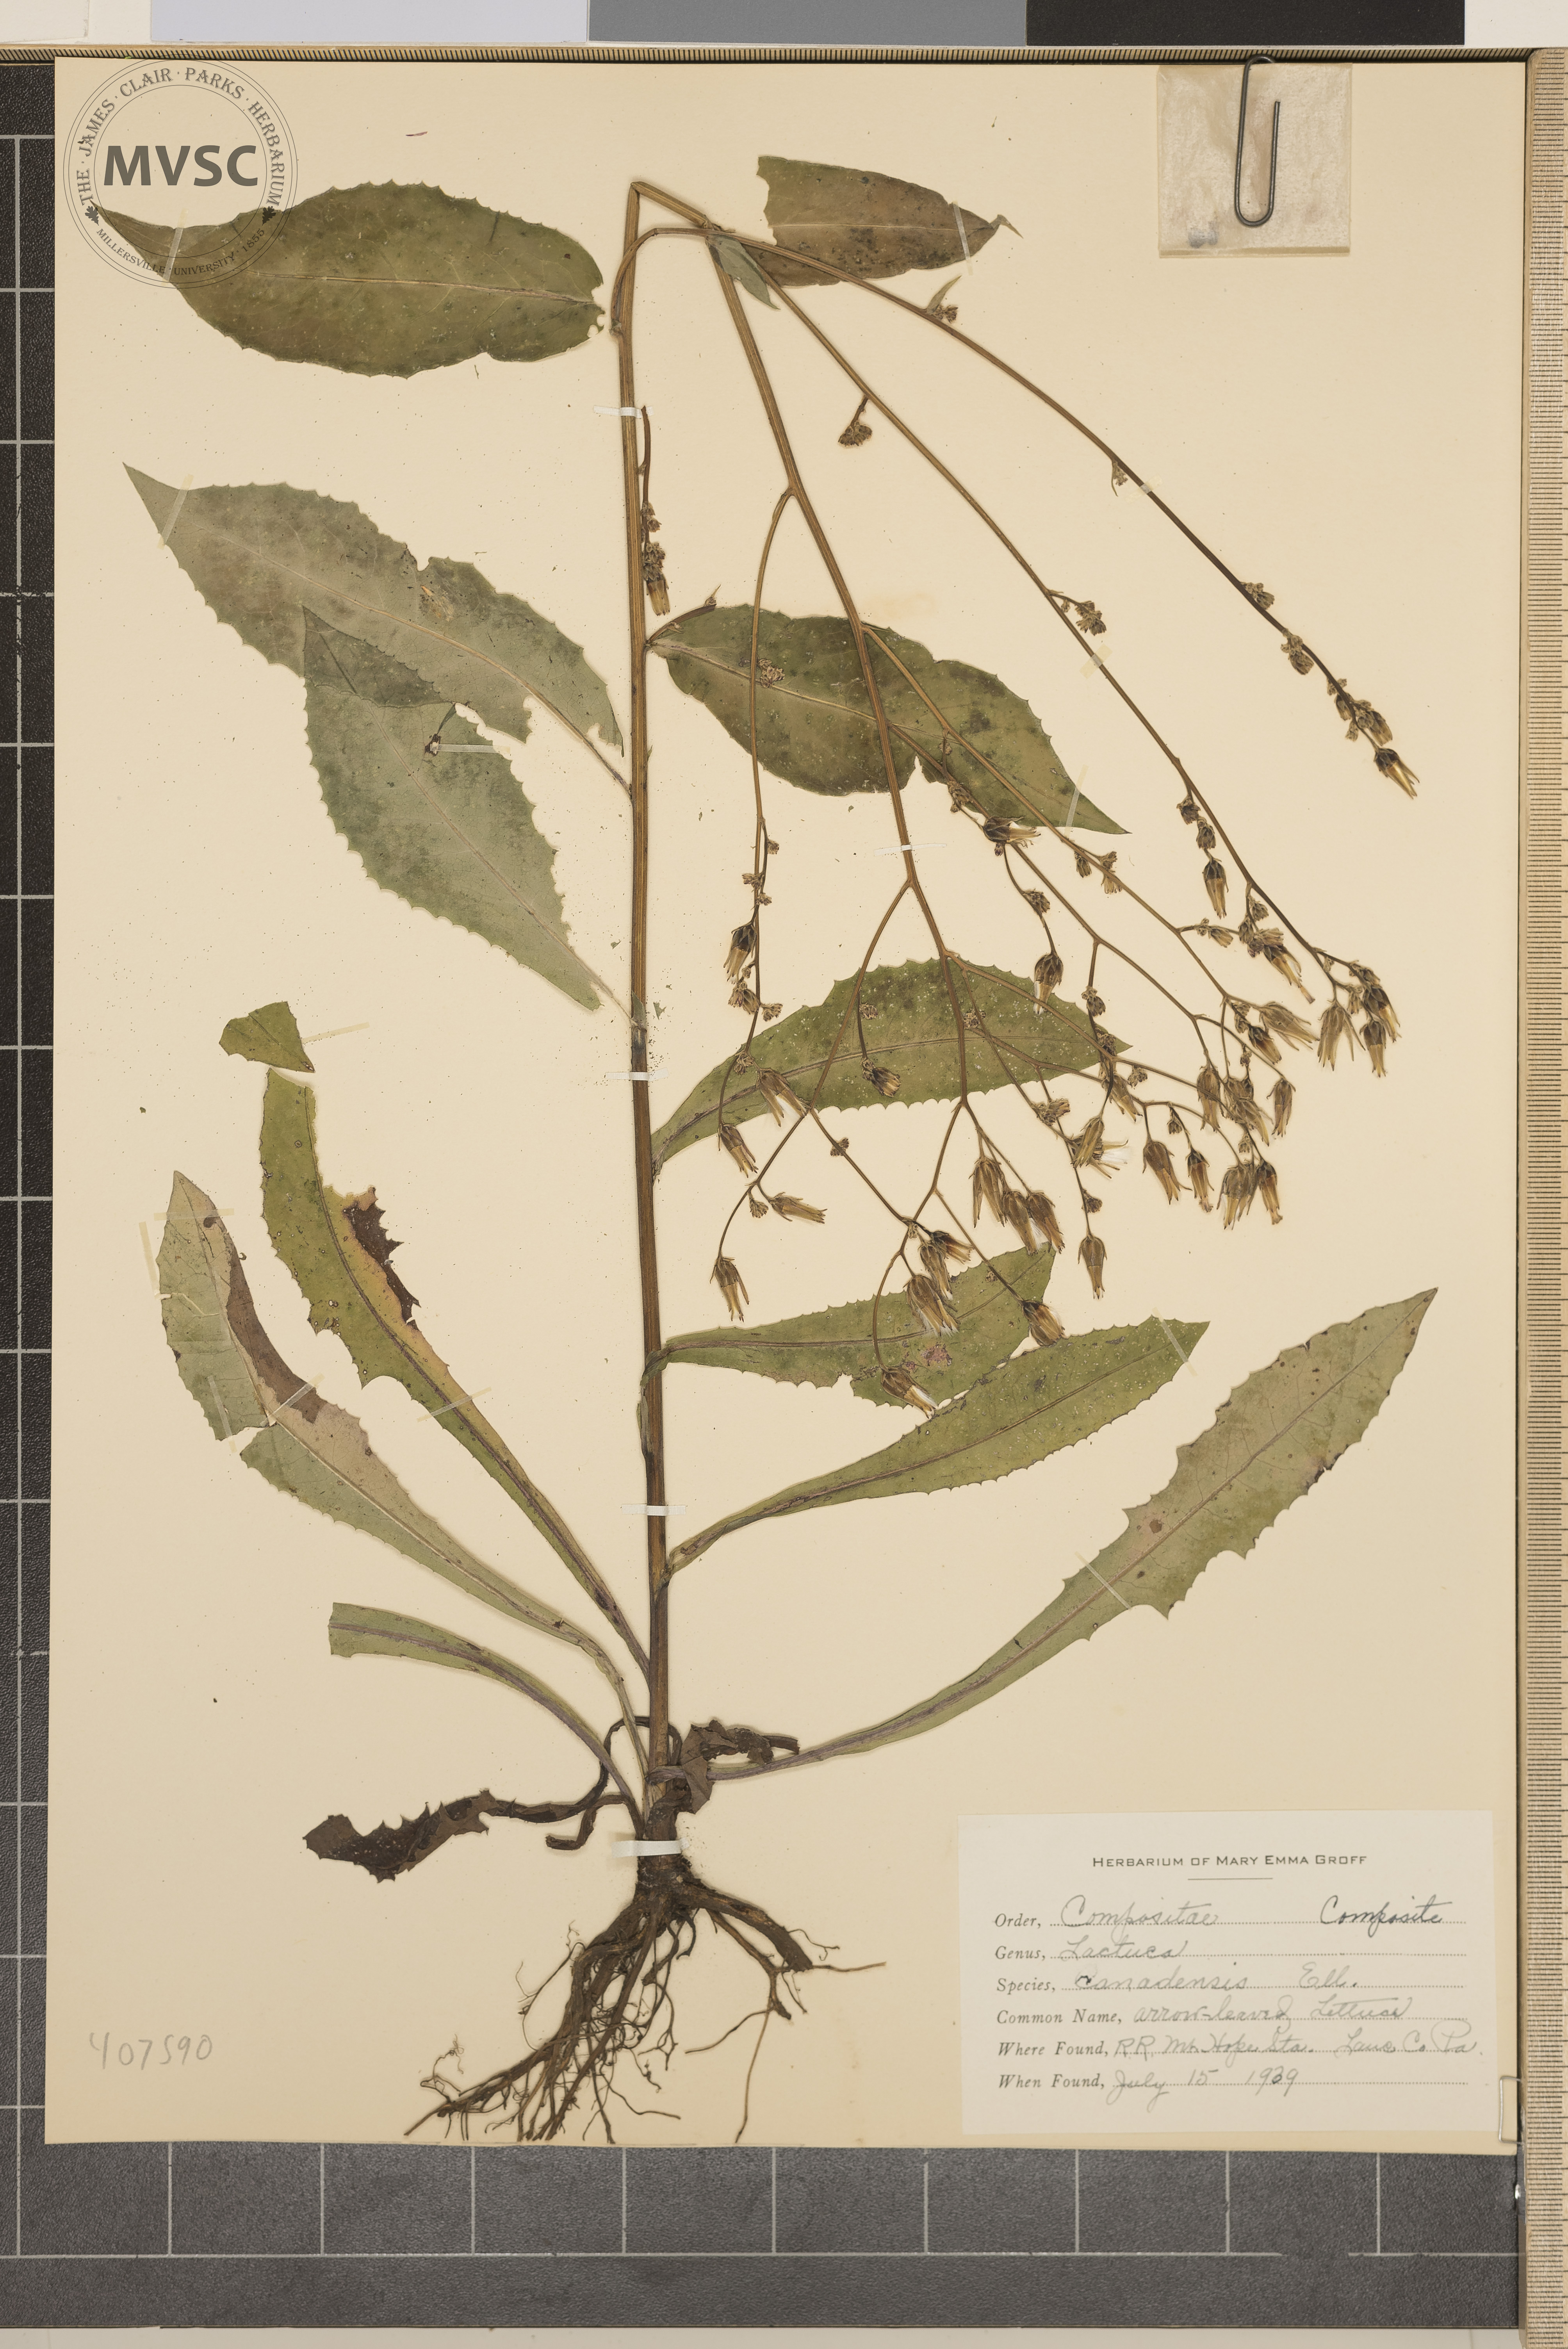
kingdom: Plantae
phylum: Tracheophyta
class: Magnoliopsida
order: Asterales
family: Asteraceae
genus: Lactuca
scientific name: Lactuca canadensis
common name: arrow-leaved lettuce
